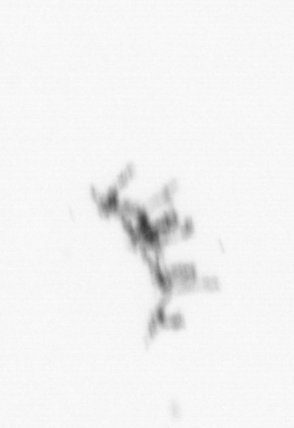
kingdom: Animalia
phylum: Cnidaria
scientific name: Cnidaria
